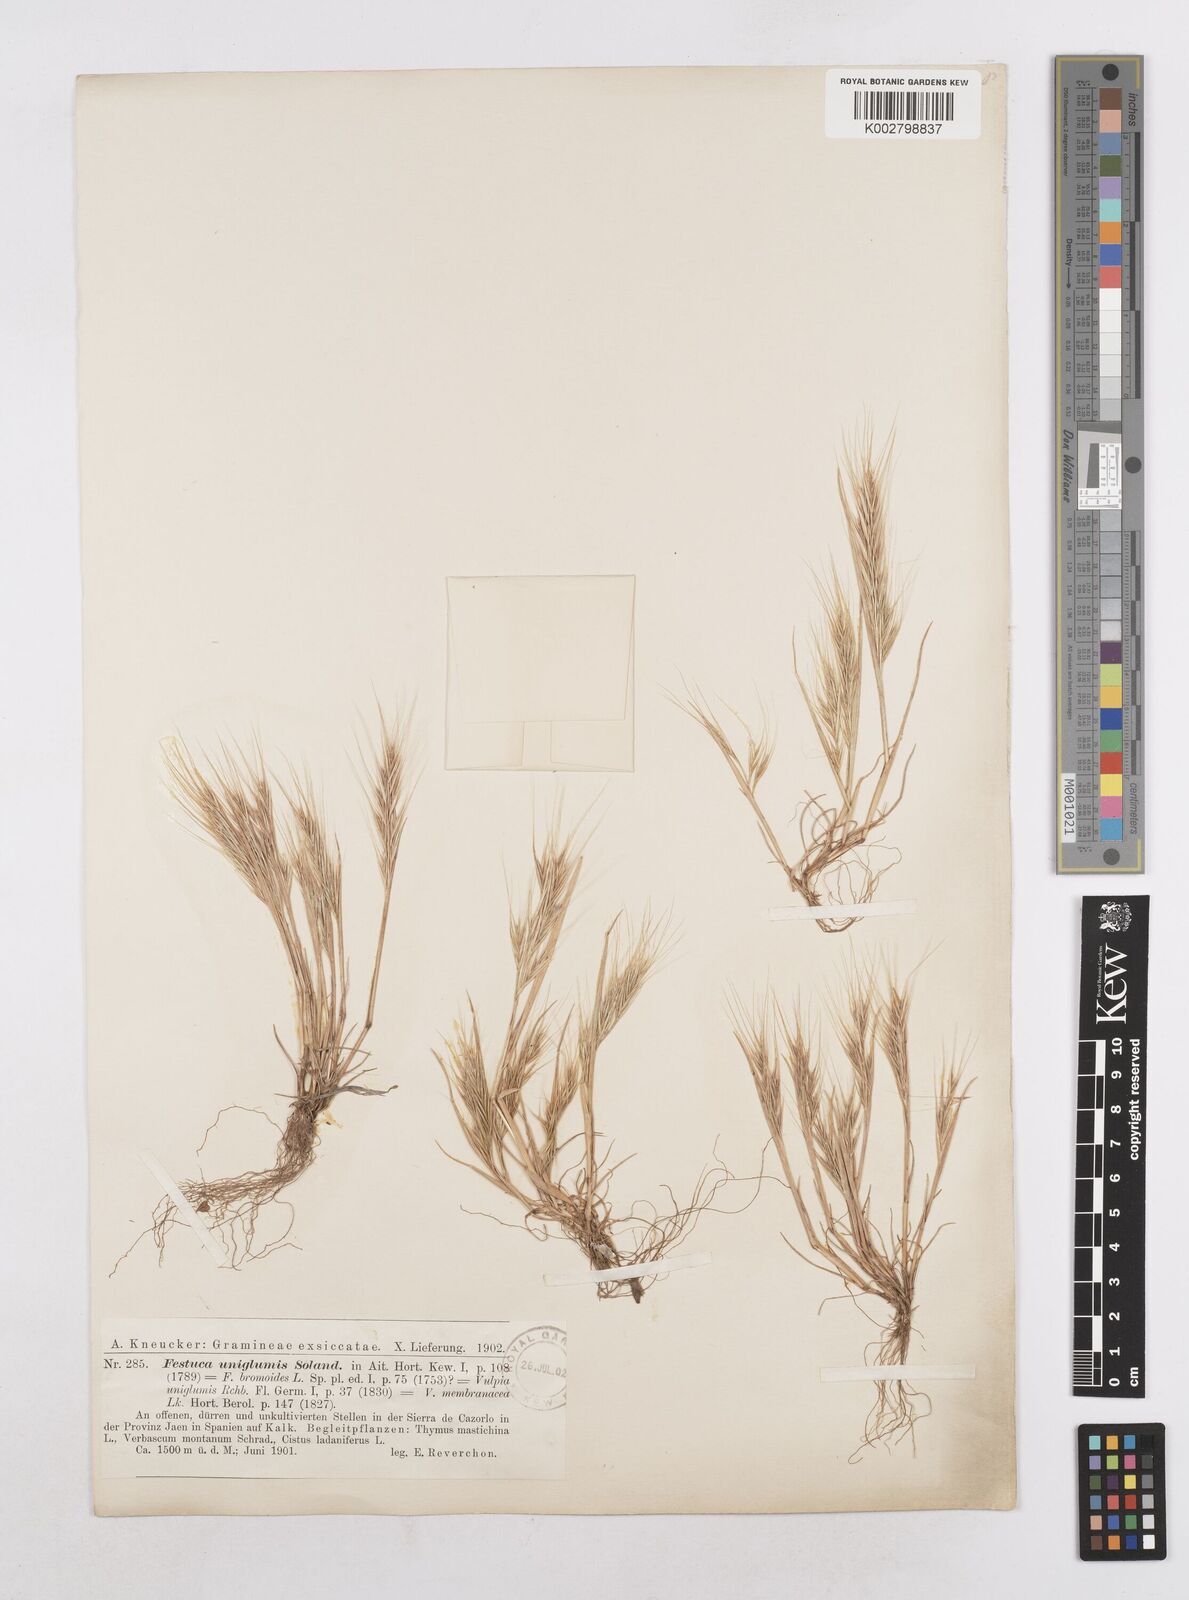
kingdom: Plantae
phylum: Tracheophyta
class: Liliopsida
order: Poales
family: Poaceae
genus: Festuca
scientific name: Festuca membranacea
